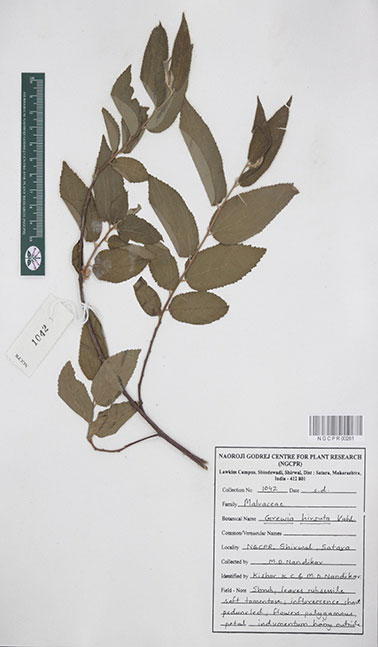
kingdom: Plantae
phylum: Tracheophyta
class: Magnoliopsida
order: Malvales
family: Malvaceae
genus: Grewia
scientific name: Grewia hirsuta
